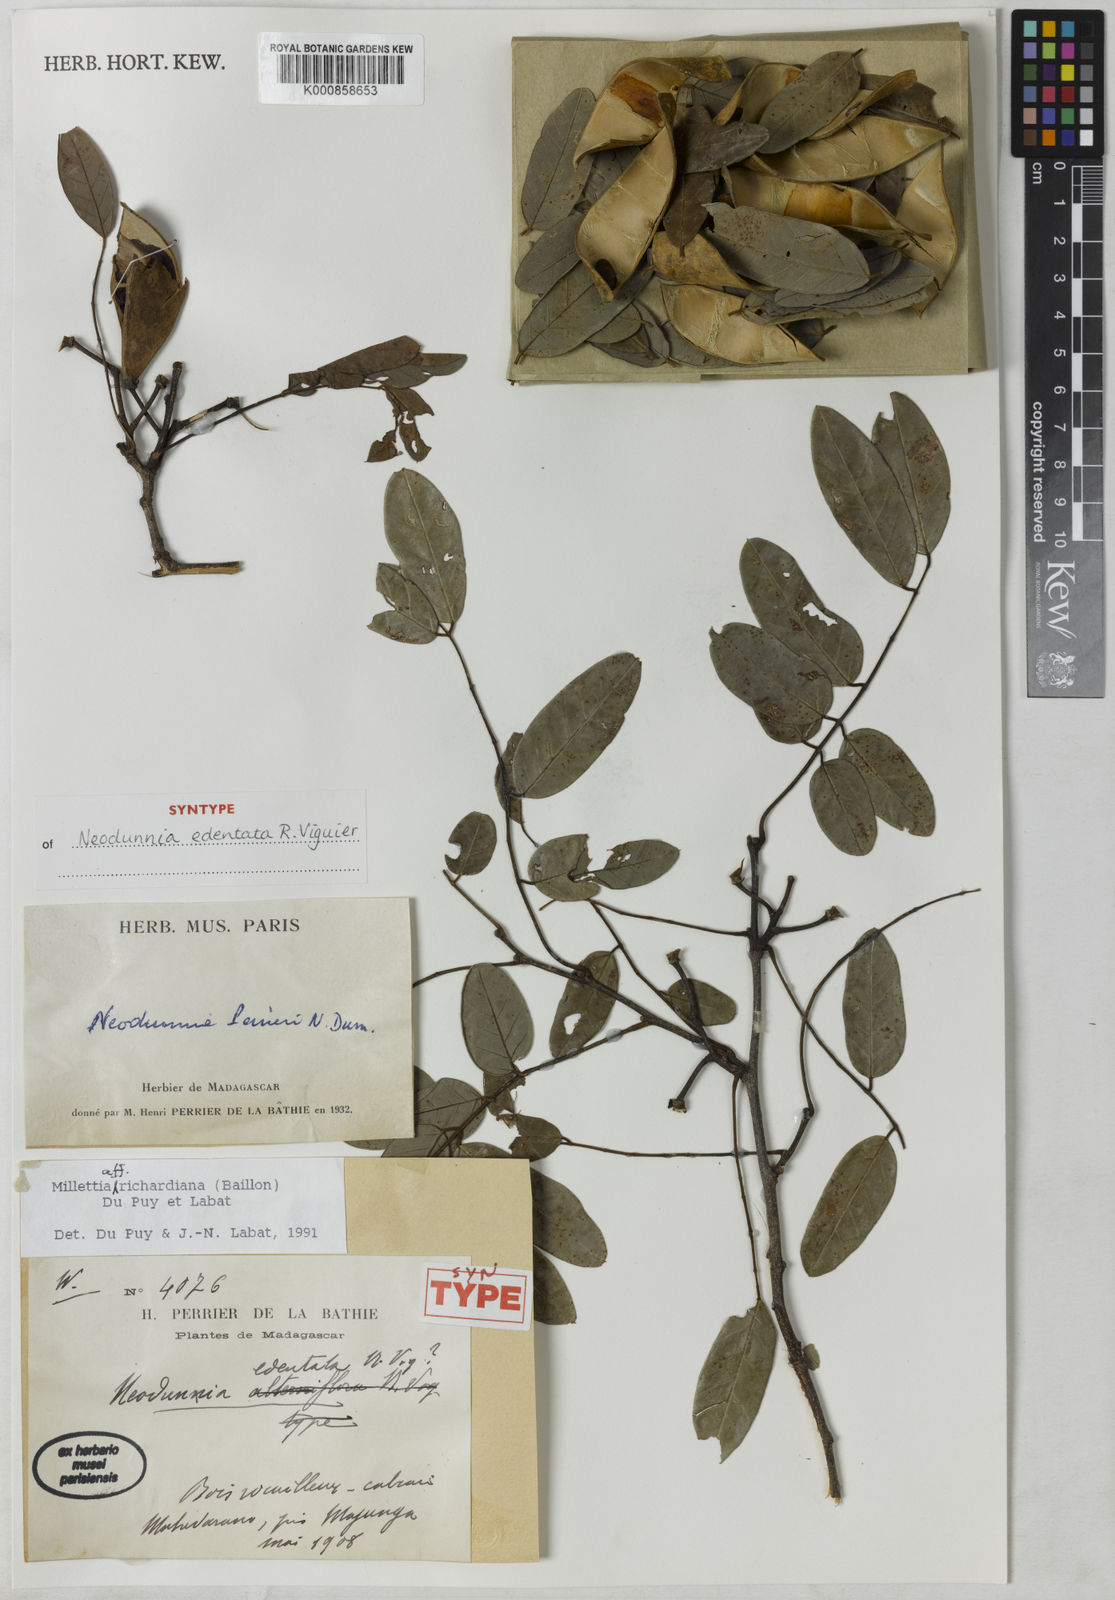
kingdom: Plantae
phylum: Tracheophyta
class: Magnoliopsida
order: Fabales
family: Fabaceae
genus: Millettia
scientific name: Millettia richardiana
